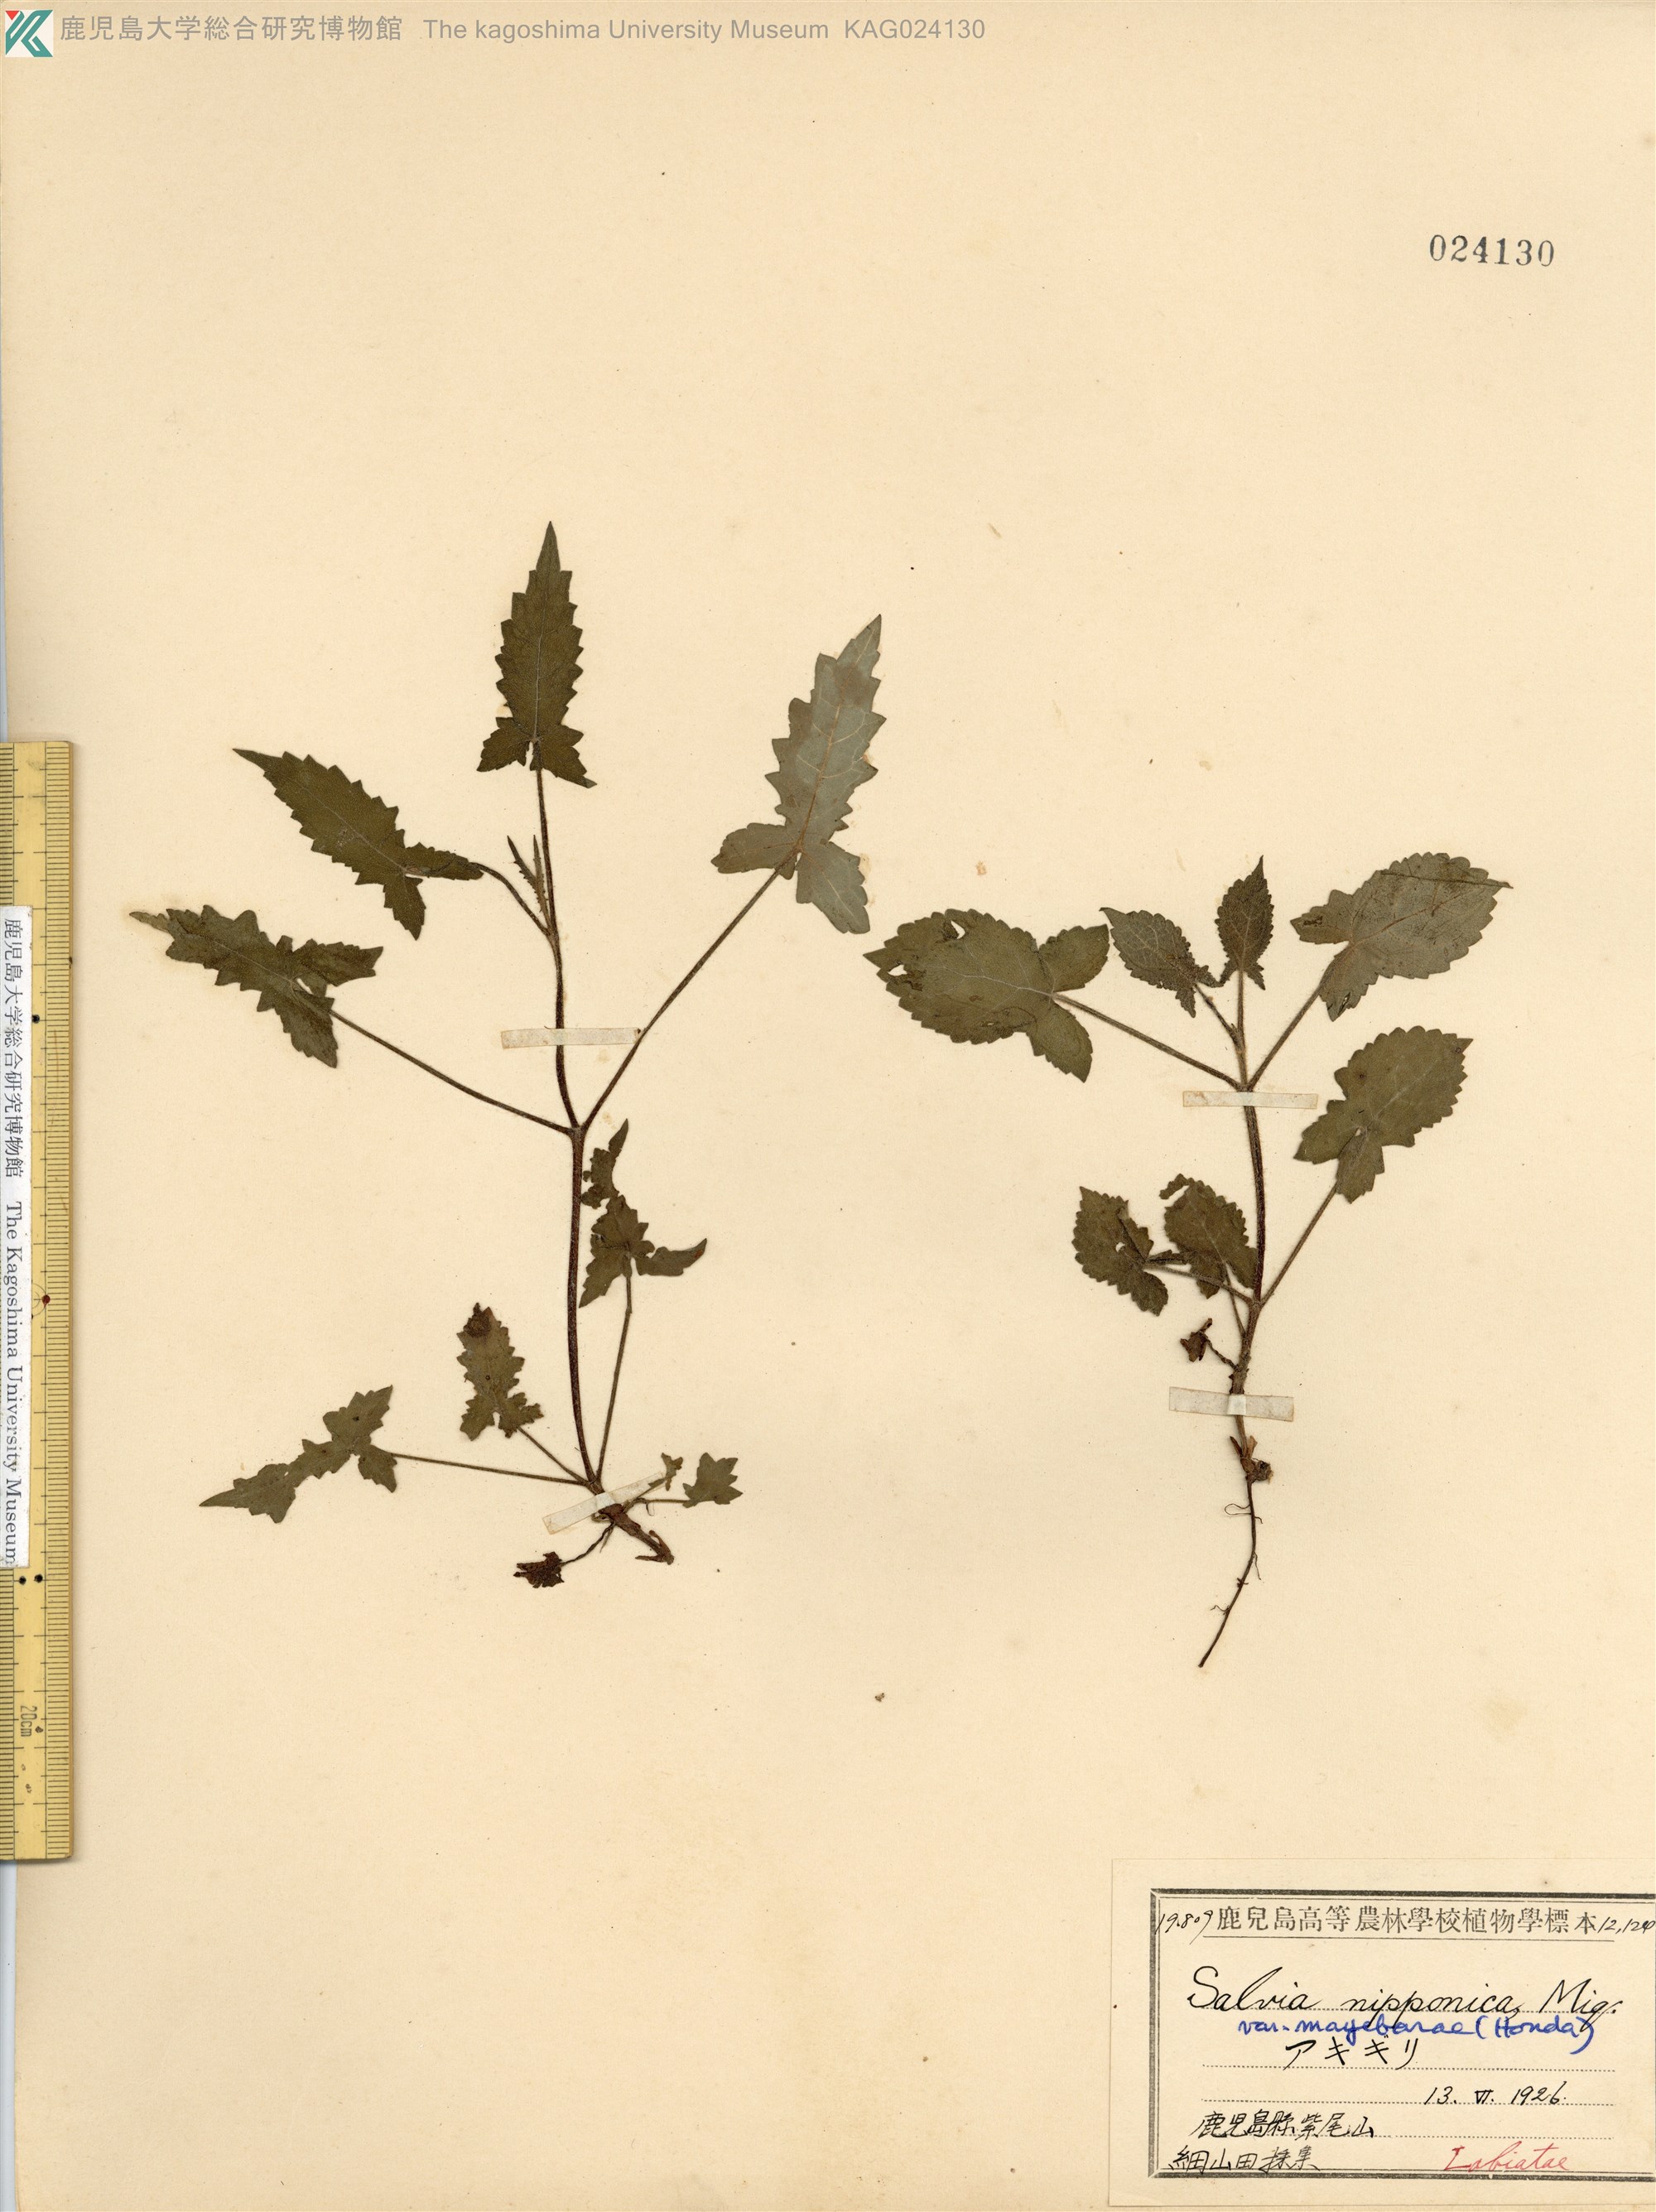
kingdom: Plantae
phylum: Tracheophyta
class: Magnoliopsida
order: Lamiales
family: Lamiaceae
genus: Salvia
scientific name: Salvia nipponica
